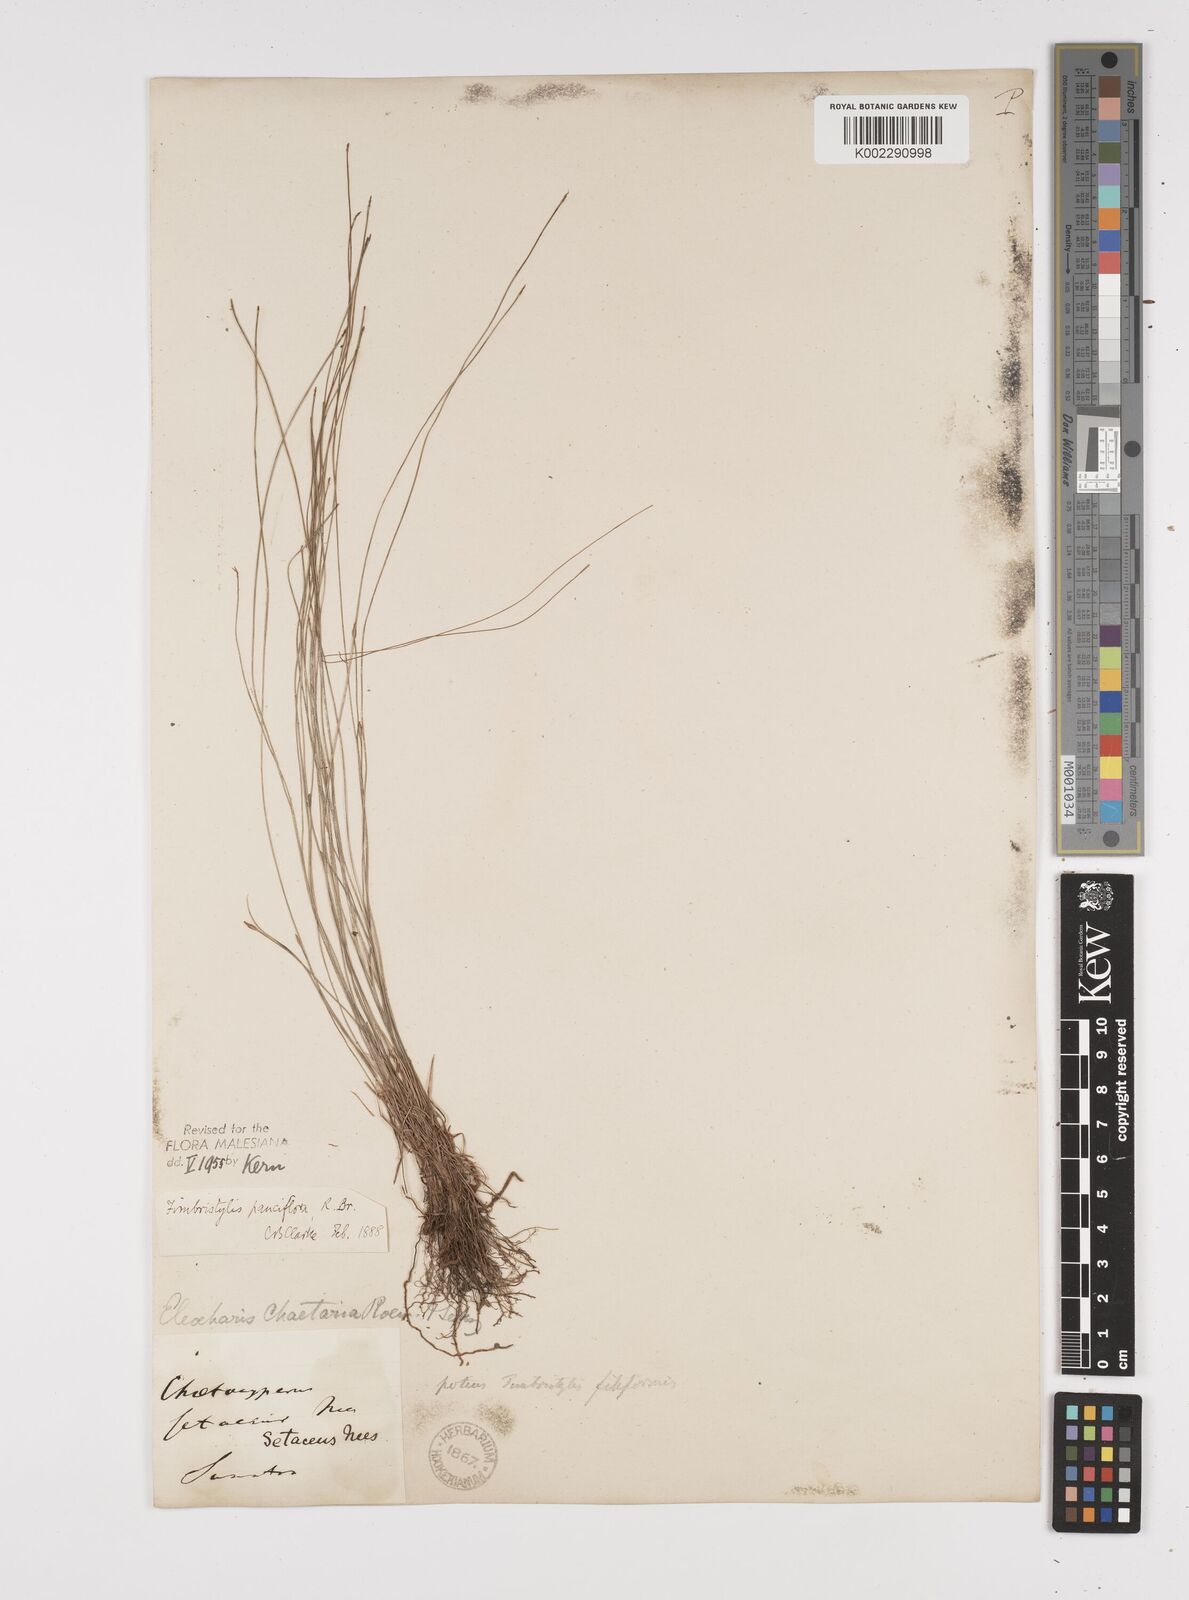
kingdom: Plantae
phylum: Tracheophyta
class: Liliopsida
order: Poales
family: Cyperaceae
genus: Fimbristylis
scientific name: Fimbristylis pauciflora
